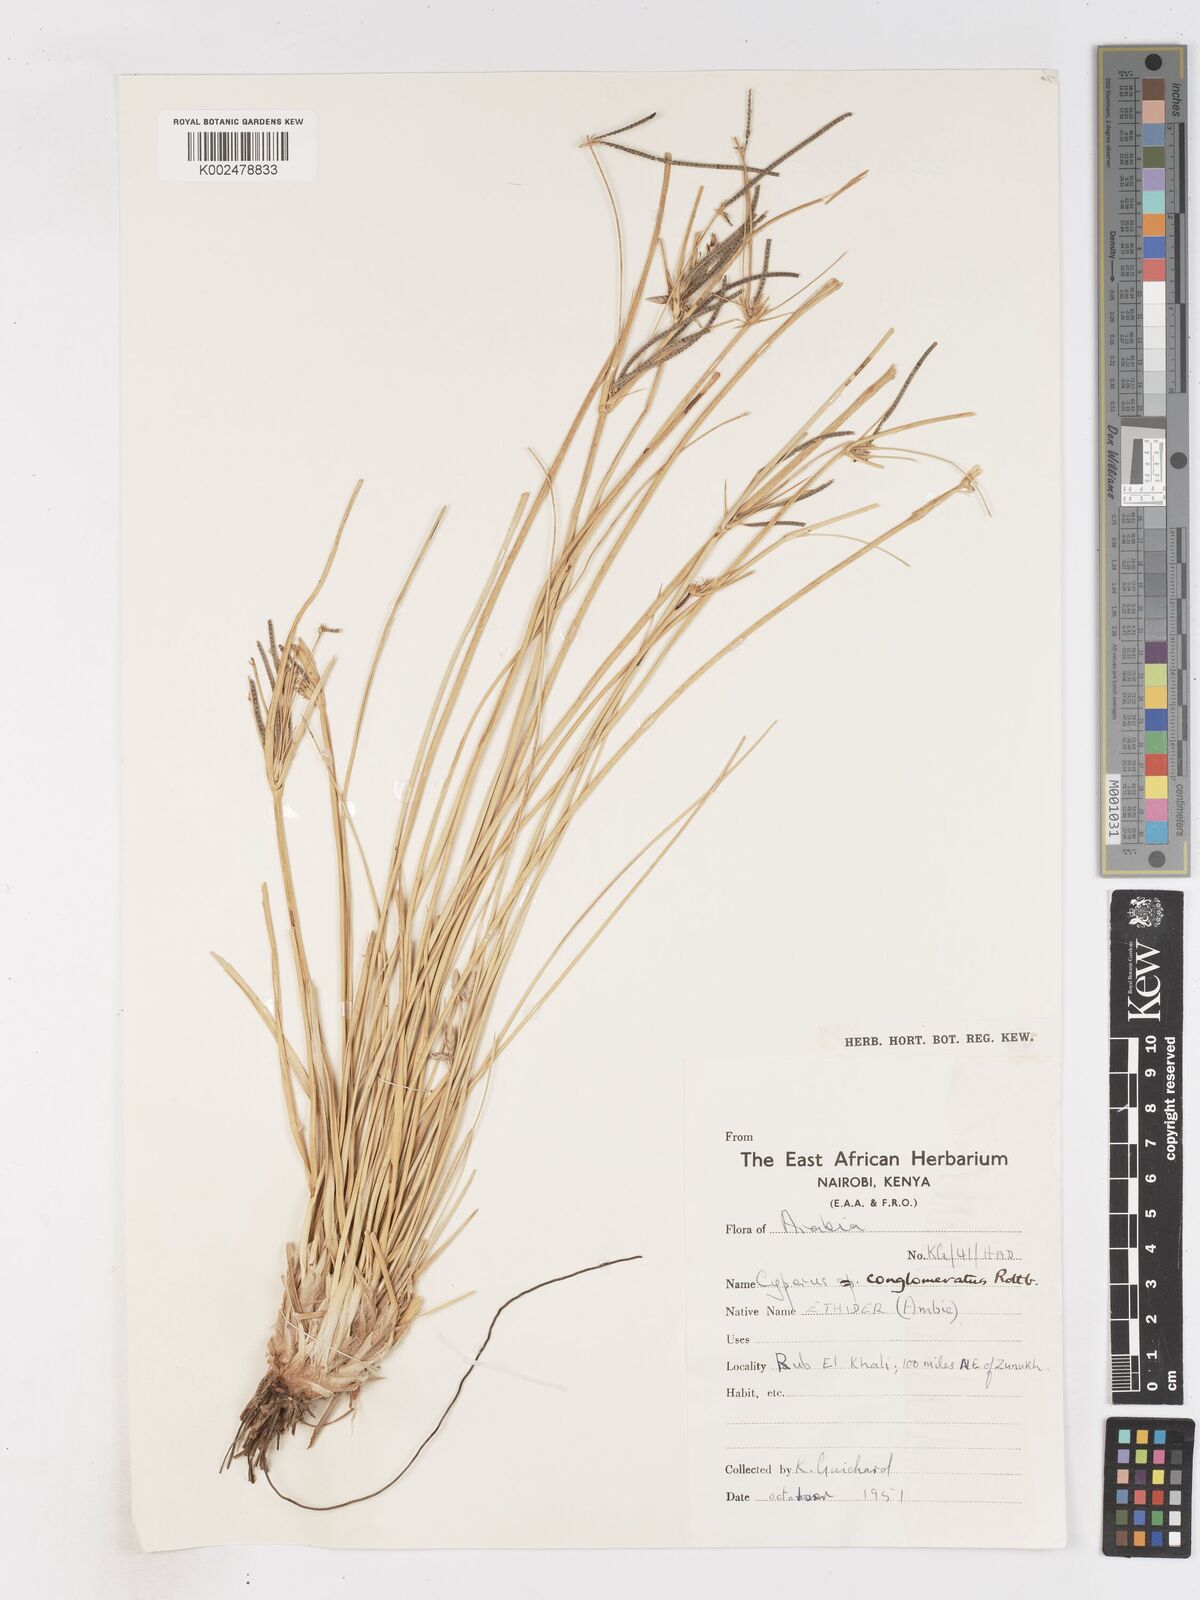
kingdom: Plantae
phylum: Tracheophyta
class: Liliopsida
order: Poales
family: Cyperaceae
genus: Cyperus
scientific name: Cyperus aucheri
